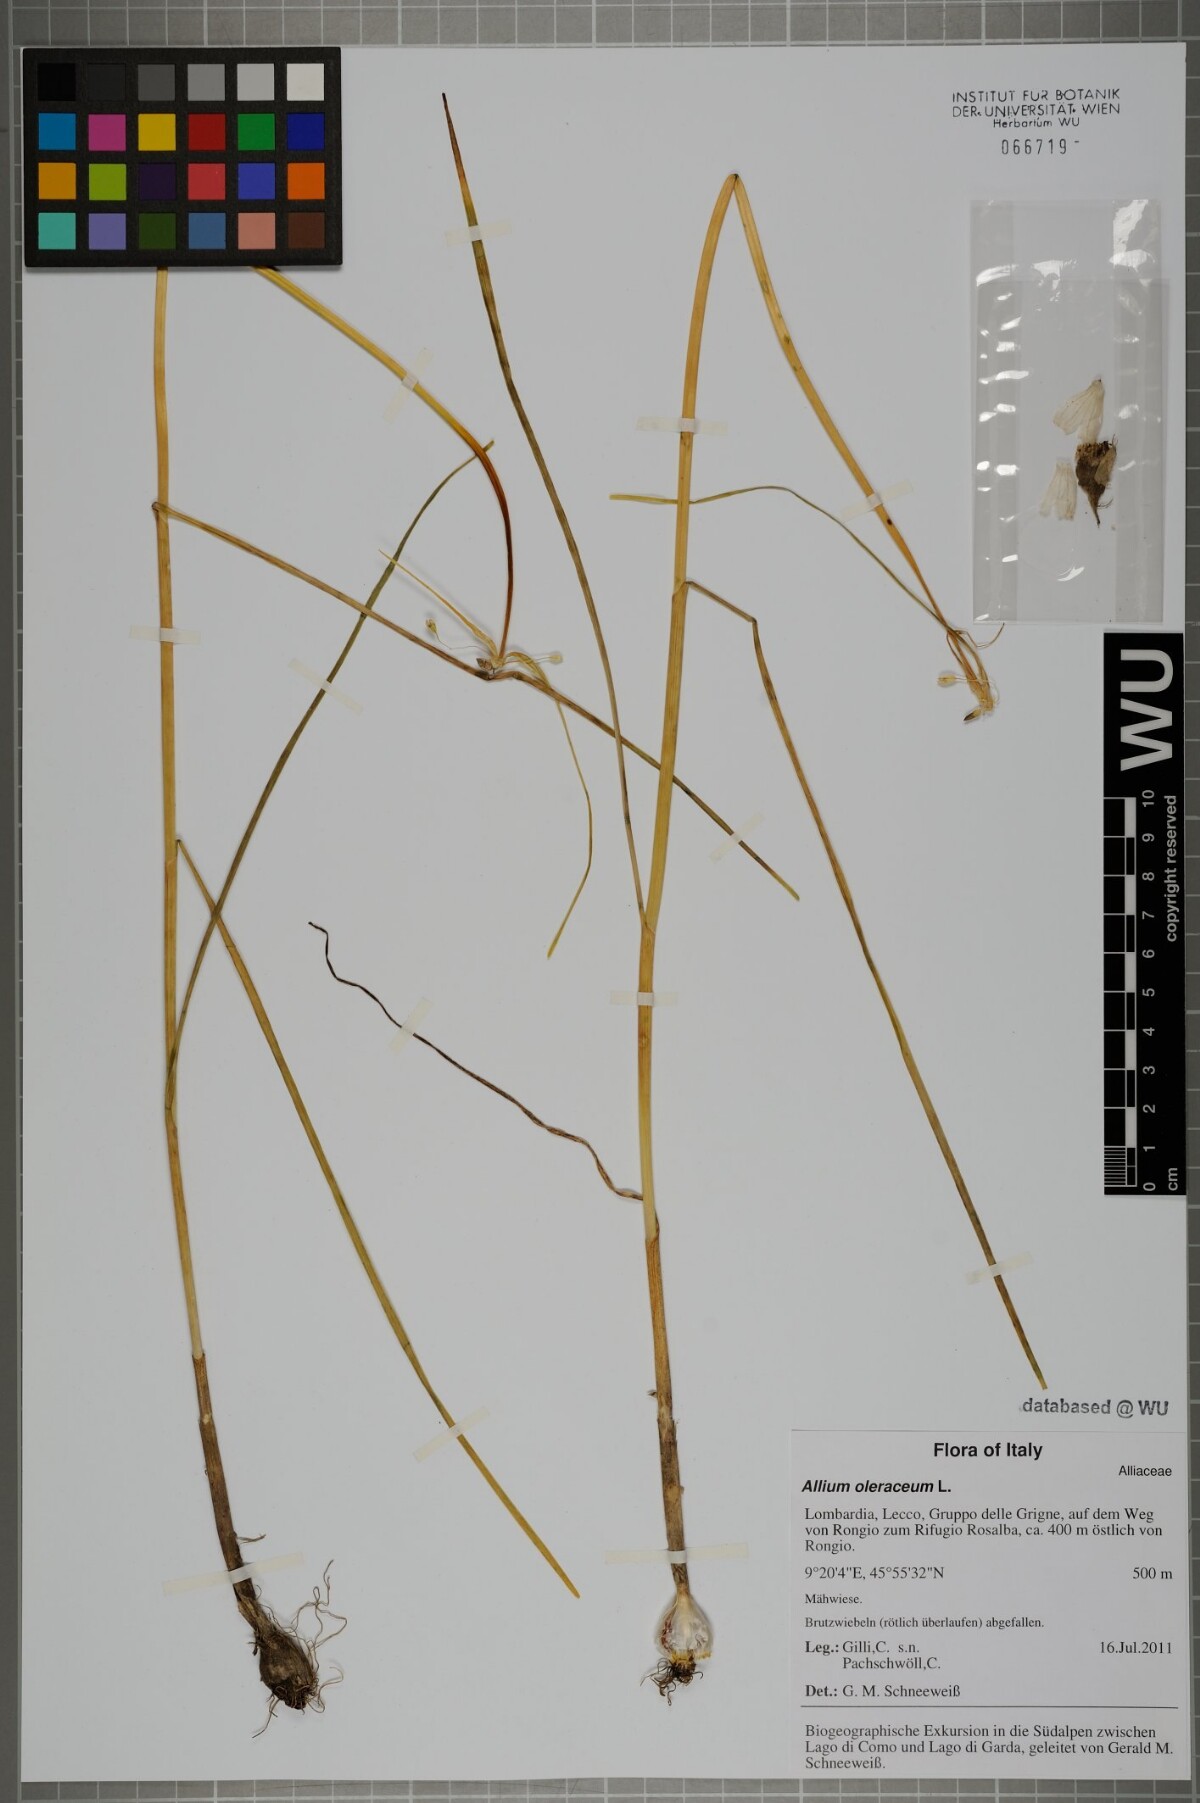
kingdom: Plantae
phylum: Tracheophyta
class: Liliopsida
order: Asparagales
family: Amaryllidaceae
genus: Allium
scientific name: Allium oleraceum
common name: Field garlic
